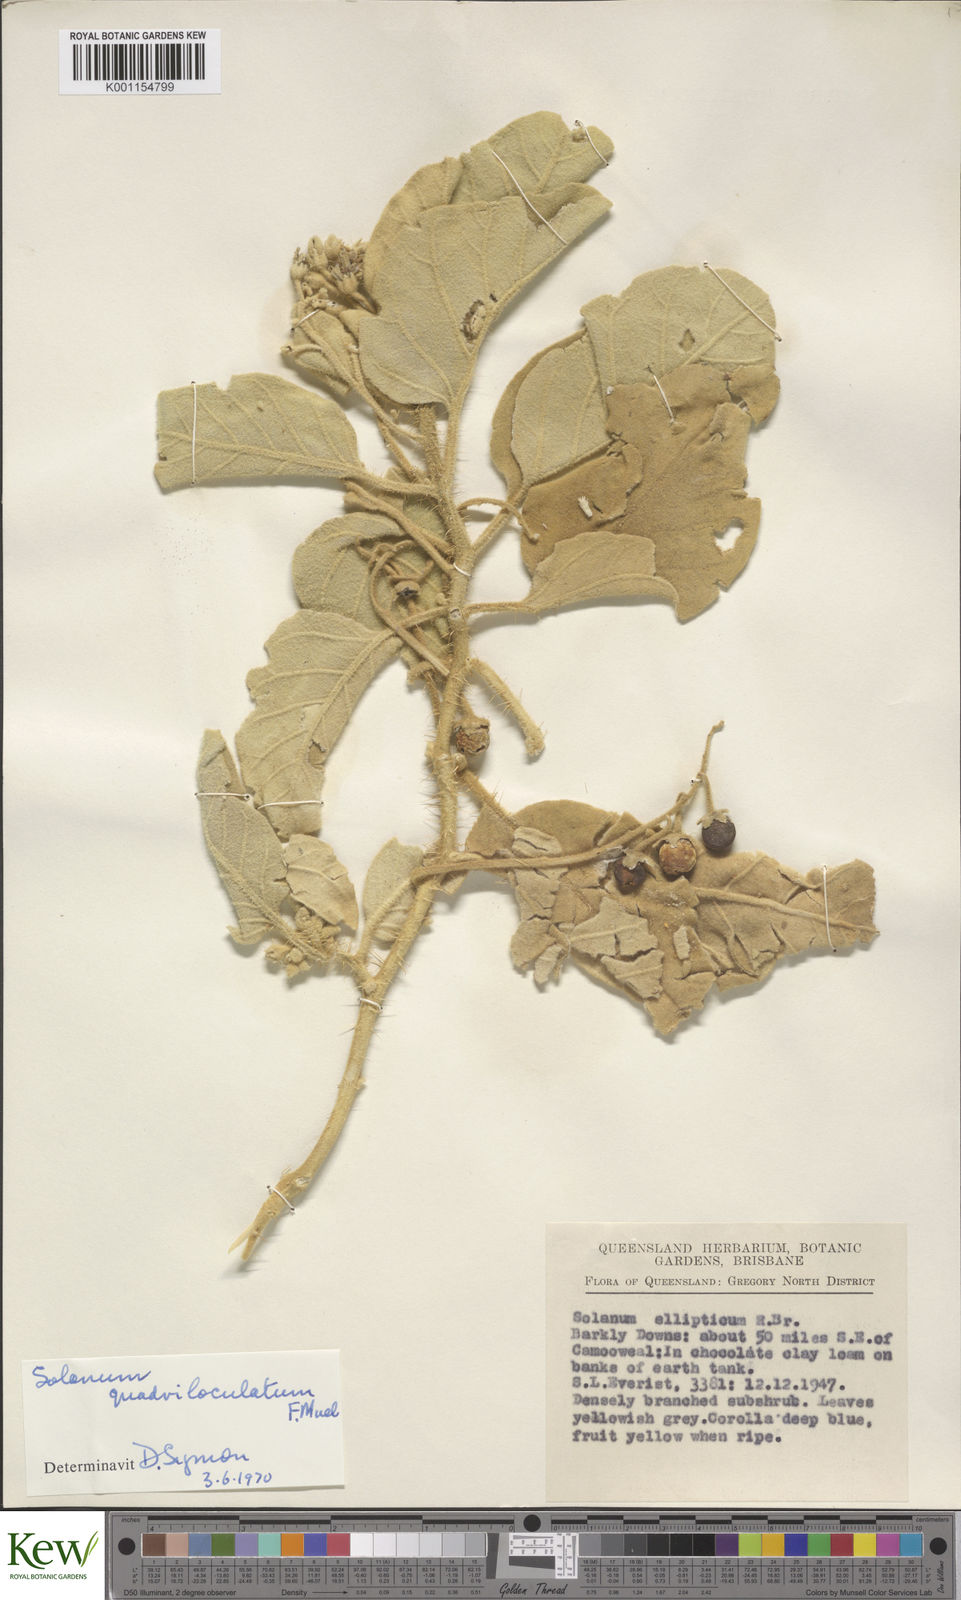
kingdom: Plantae
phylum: Tracheophyta
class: Magnoliopsida
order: Solanales
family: Solanaceae
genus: Solanum
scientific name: Solanum quadriloculatum
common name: Wild tomato
